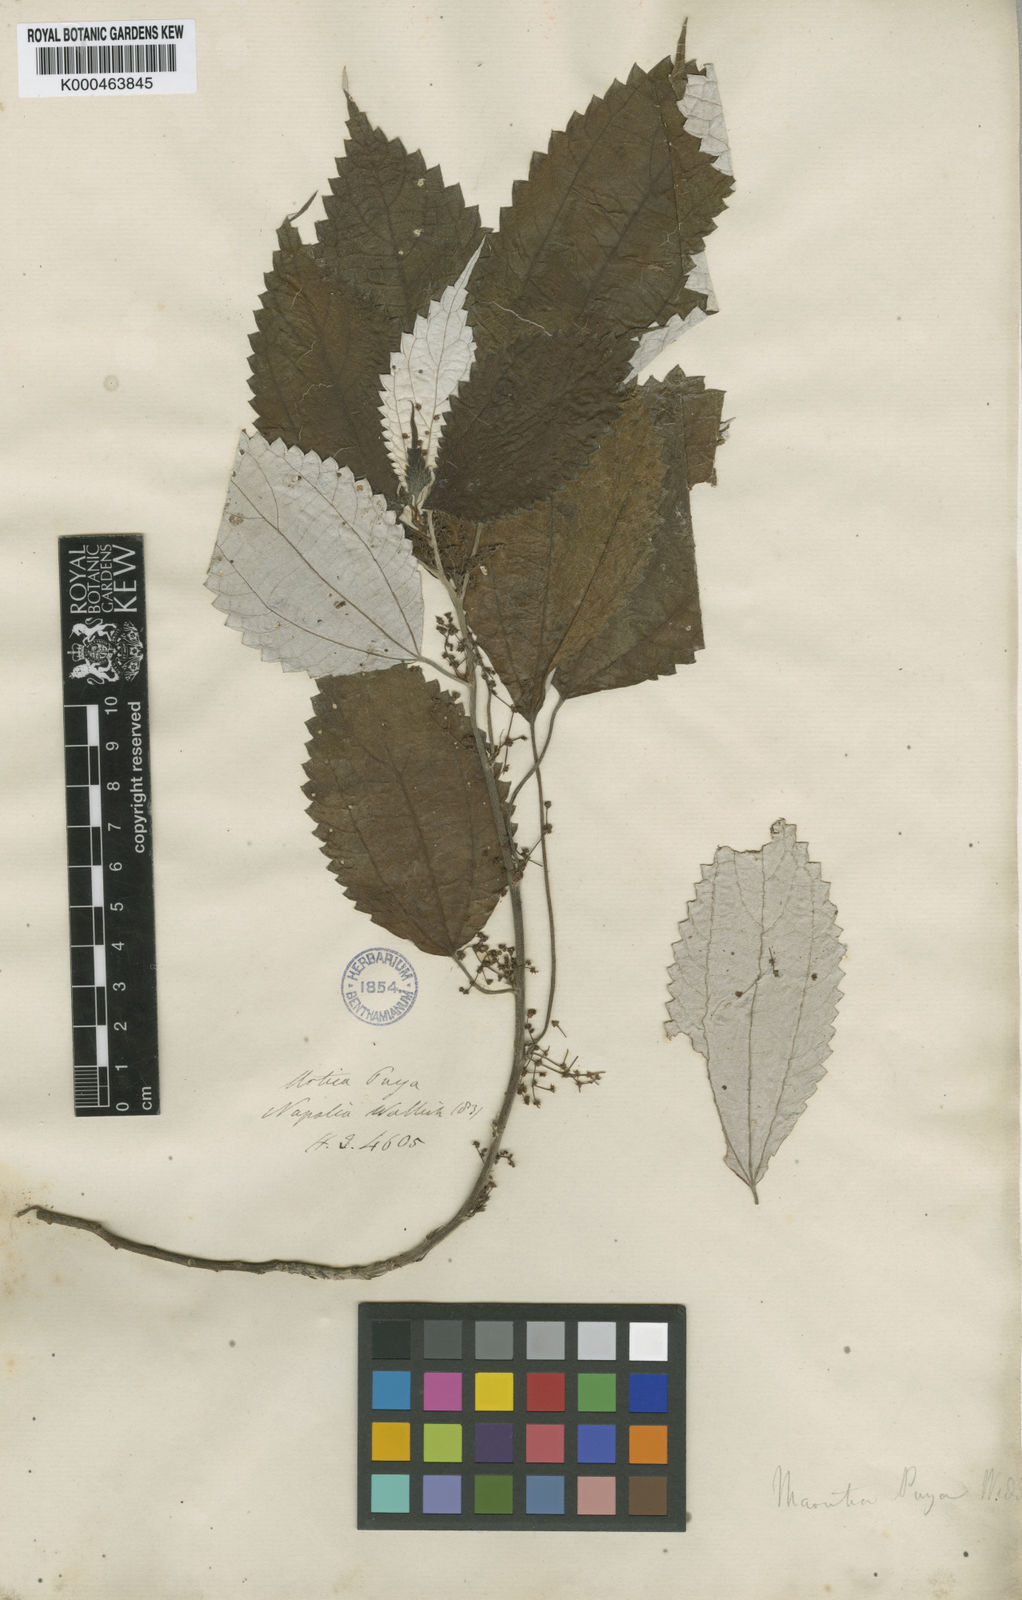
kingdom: Plantae
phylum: Tracheophyta
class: Magnoliopsida
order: Rosales
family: Urticaceae
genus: Leucosyke
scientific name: Leucosyke puya
